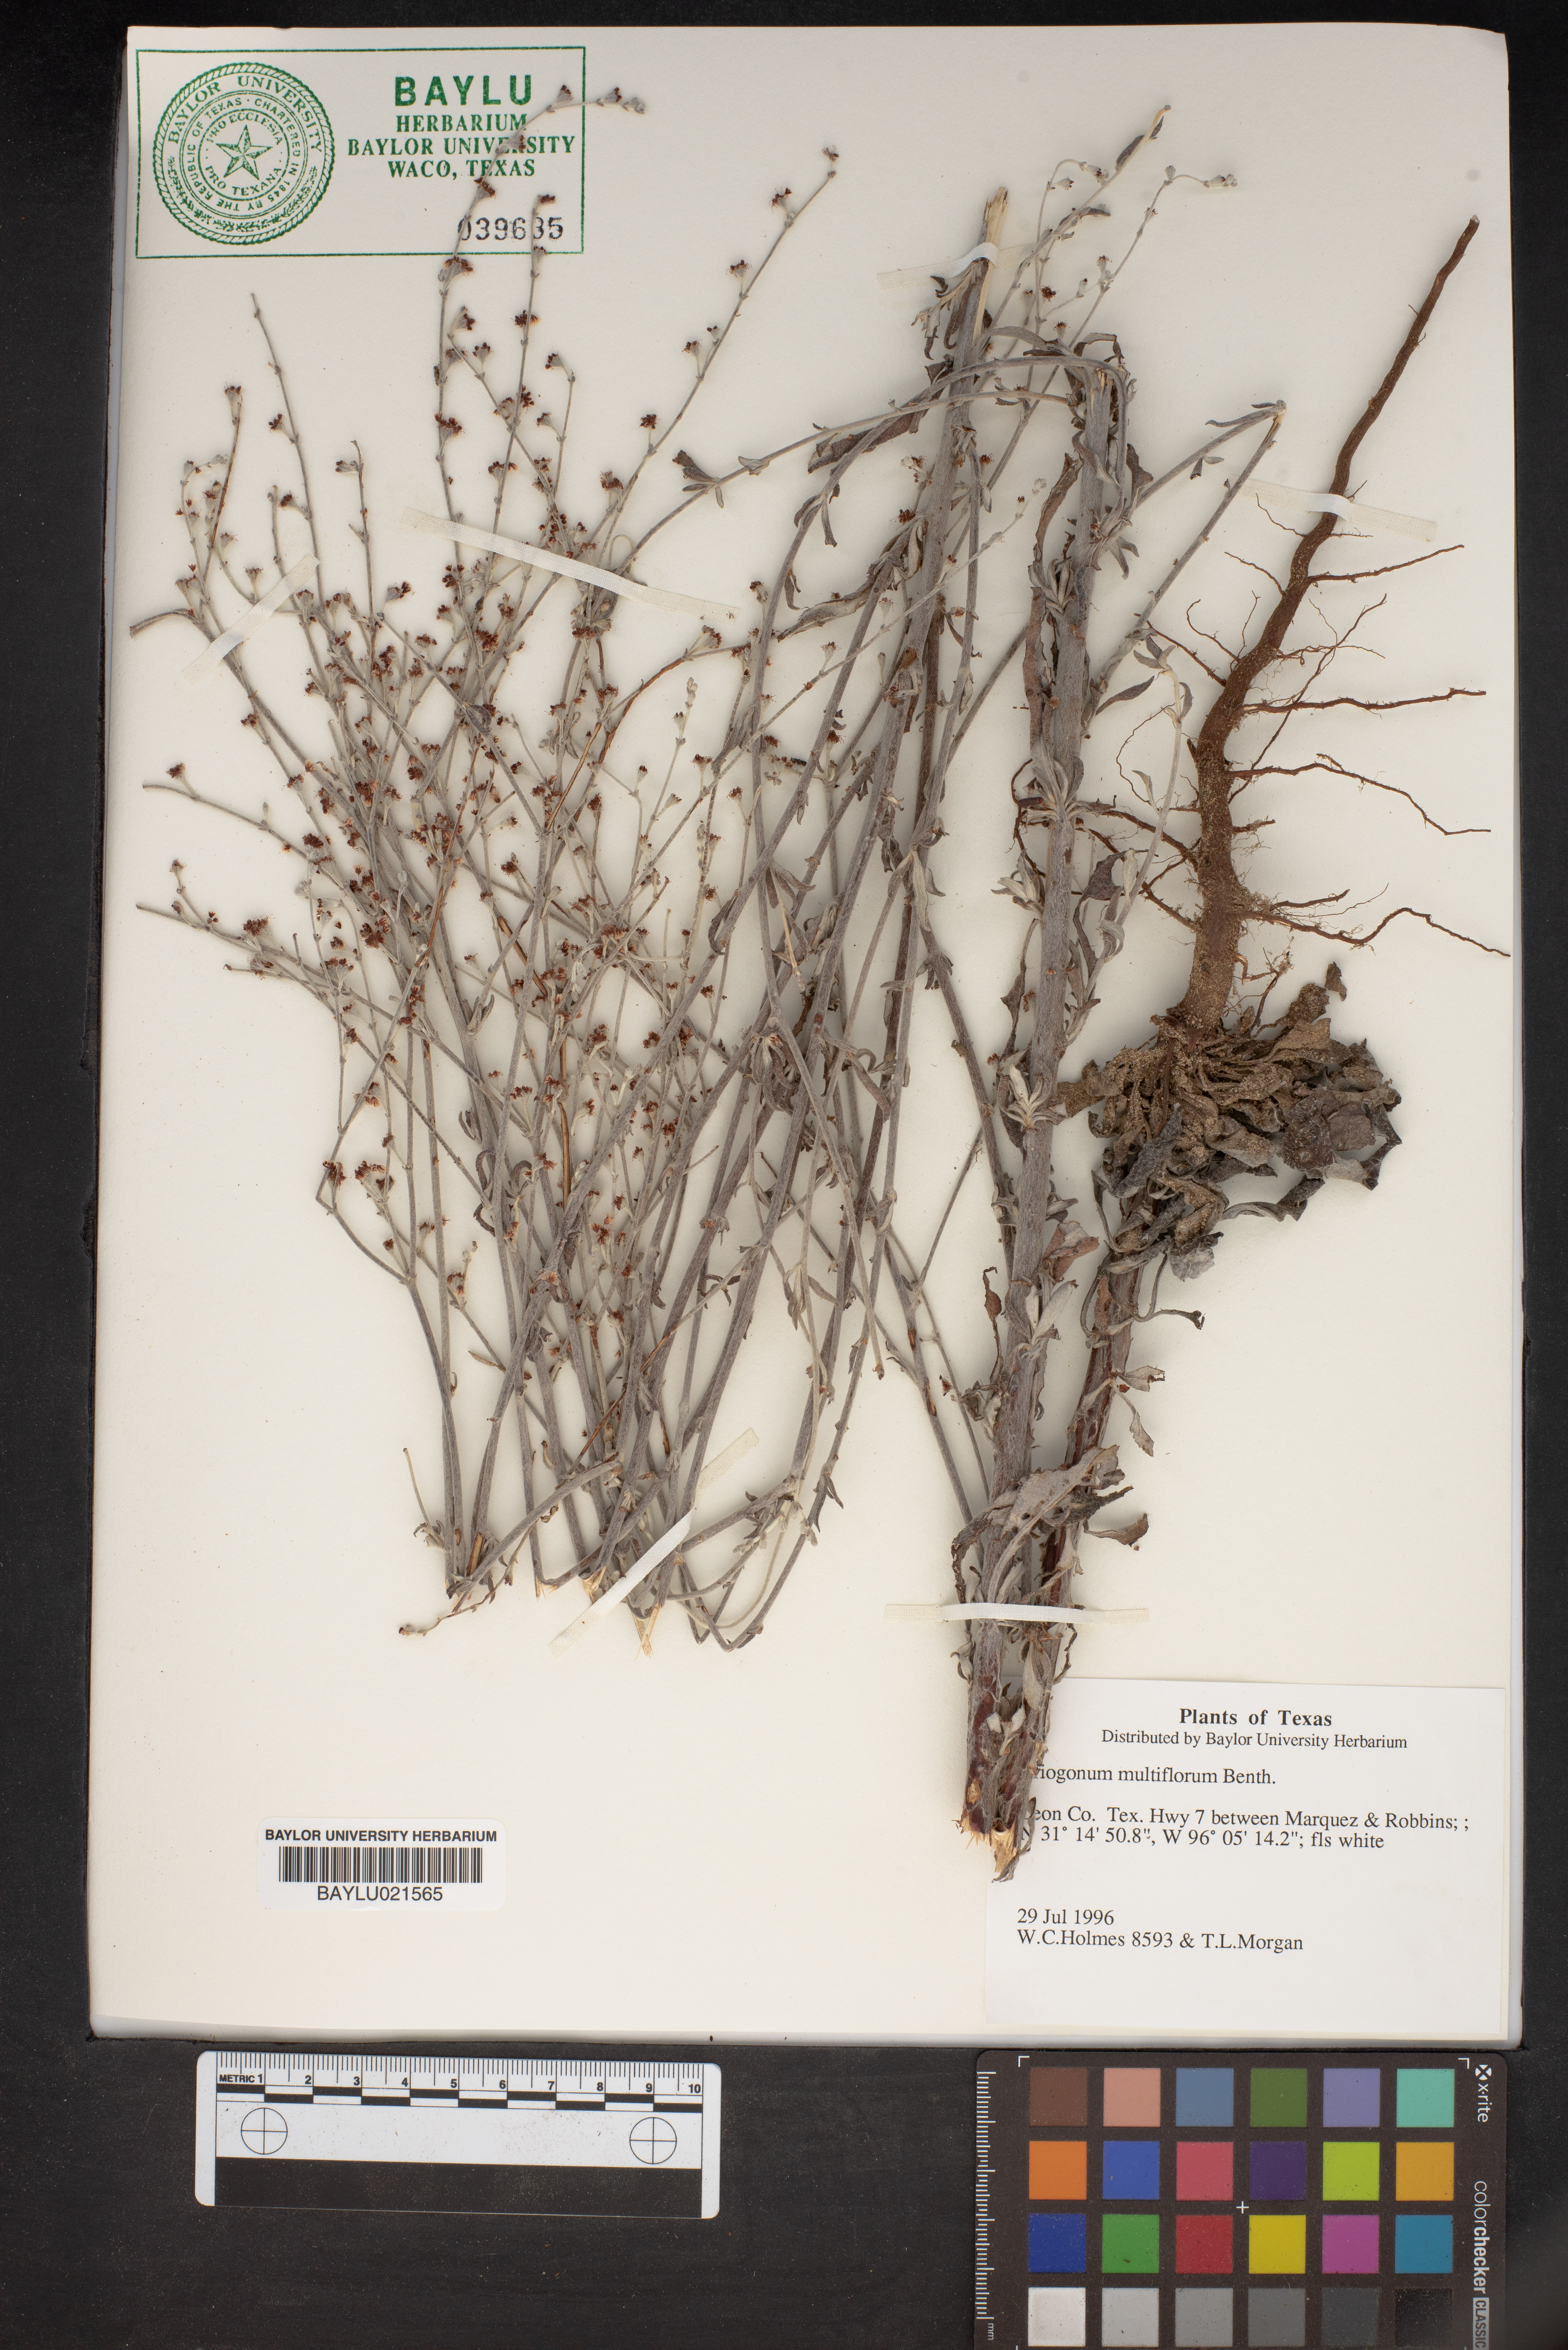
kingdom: Plantae
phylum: Tracheophyta
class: Magnoliopsida
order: Caryophyllales
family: Polygonaceae
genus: Eriogonum
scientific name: Eriogonum multiflorum
